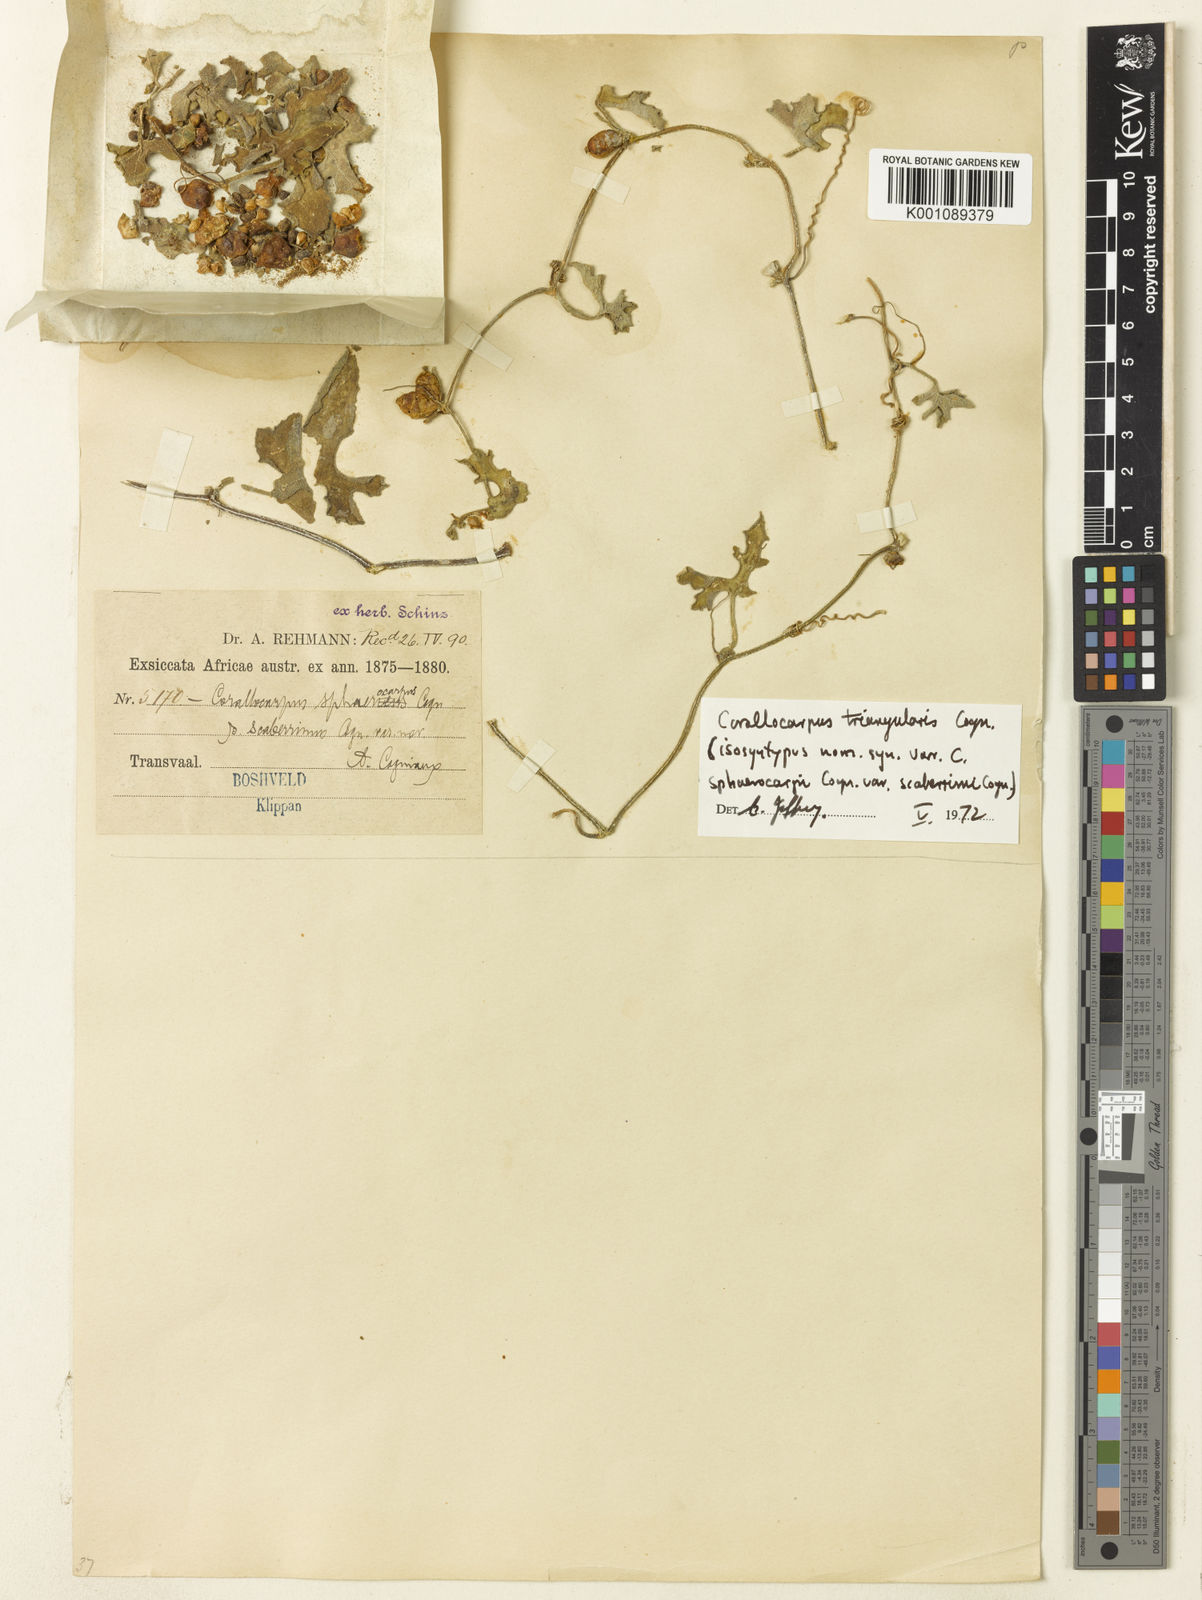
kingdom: Plantae
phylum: Tracheophyta
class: Magnoliopsida
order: Cucurbitales
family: Cucurbitaceae
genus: Corallocarpus
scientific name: Corallocarpus triangularis
